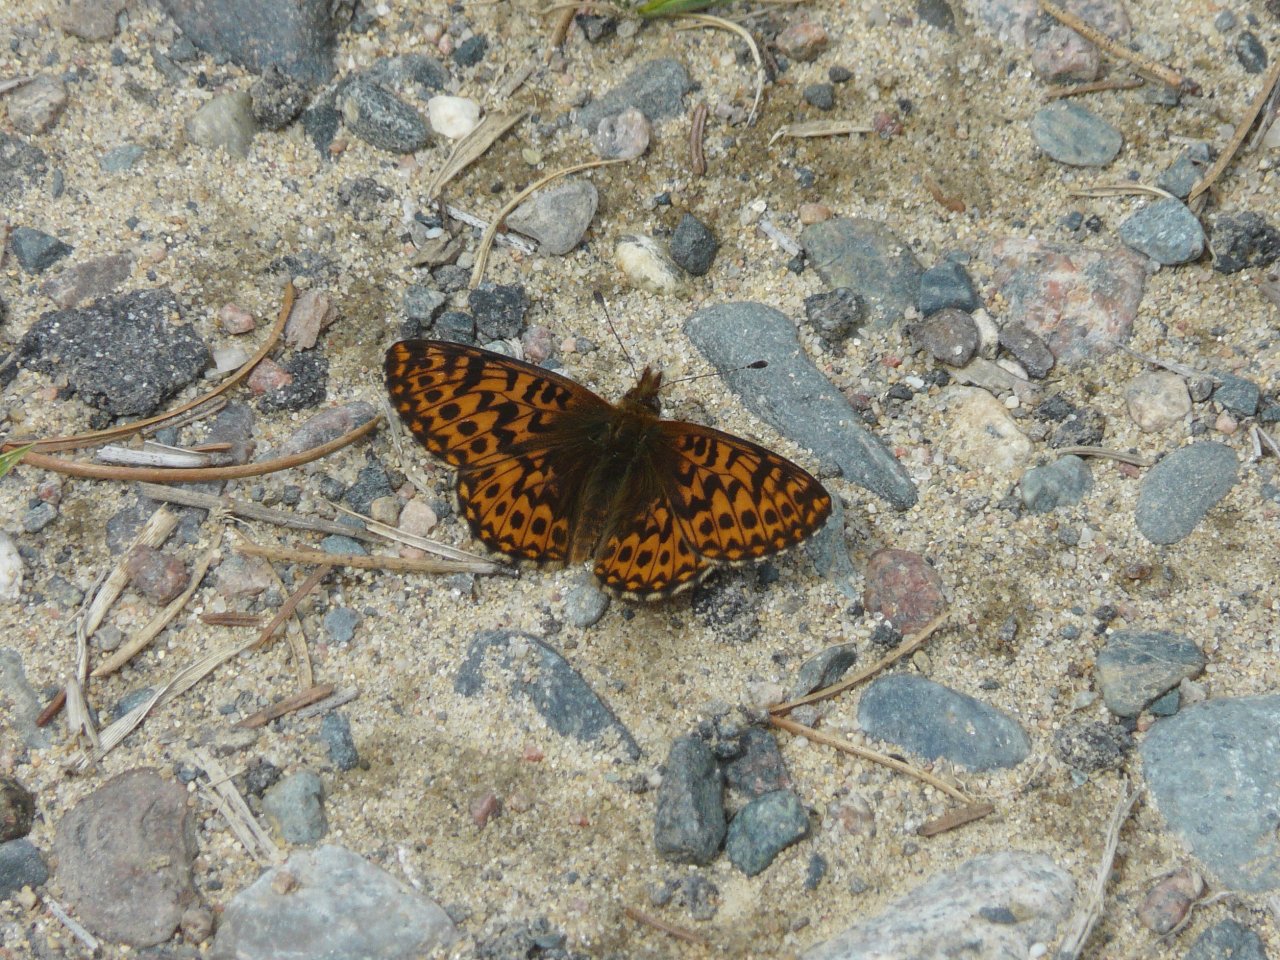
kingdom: Animalia
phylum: Arthropoda
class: Insecta
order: Lepidoptera
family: Nymphalidae
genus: Boloria
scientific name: Boloria freija
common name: Freija Fritillary
